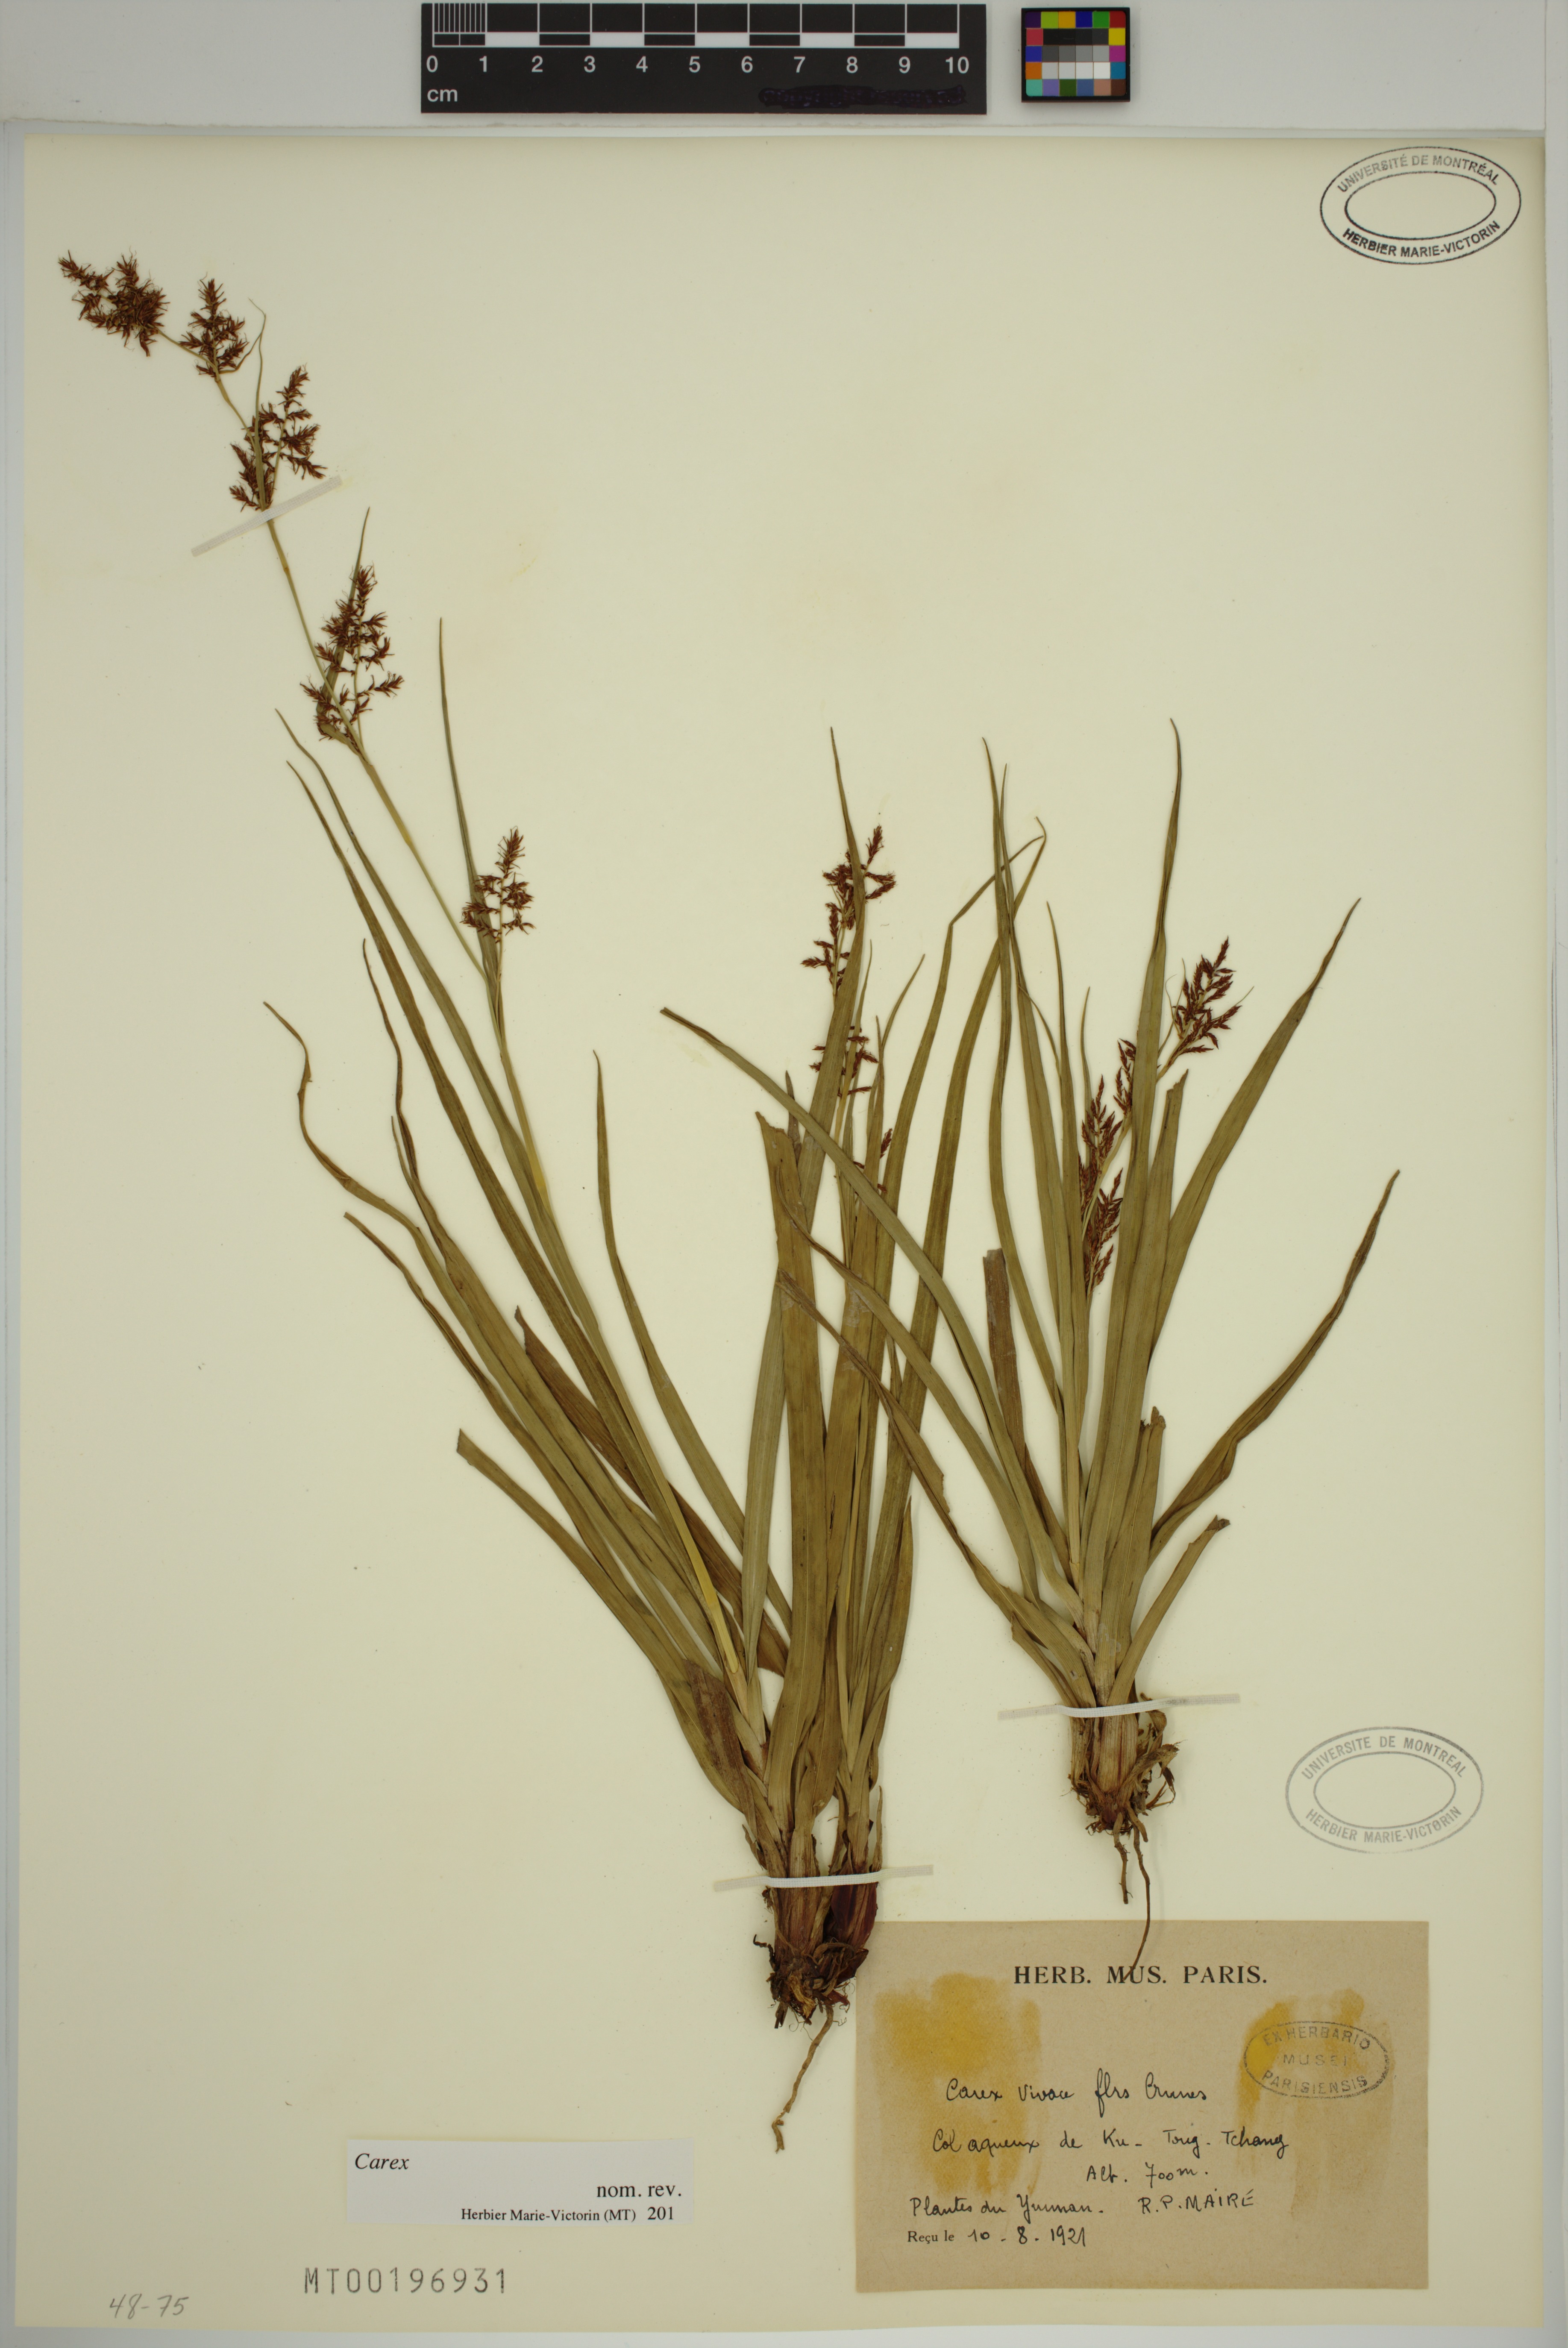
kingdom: Plantae
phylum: Tracheophyta
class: Liliopsida
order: Poales
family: Cyperaceae
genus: Carex
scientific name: Carex
